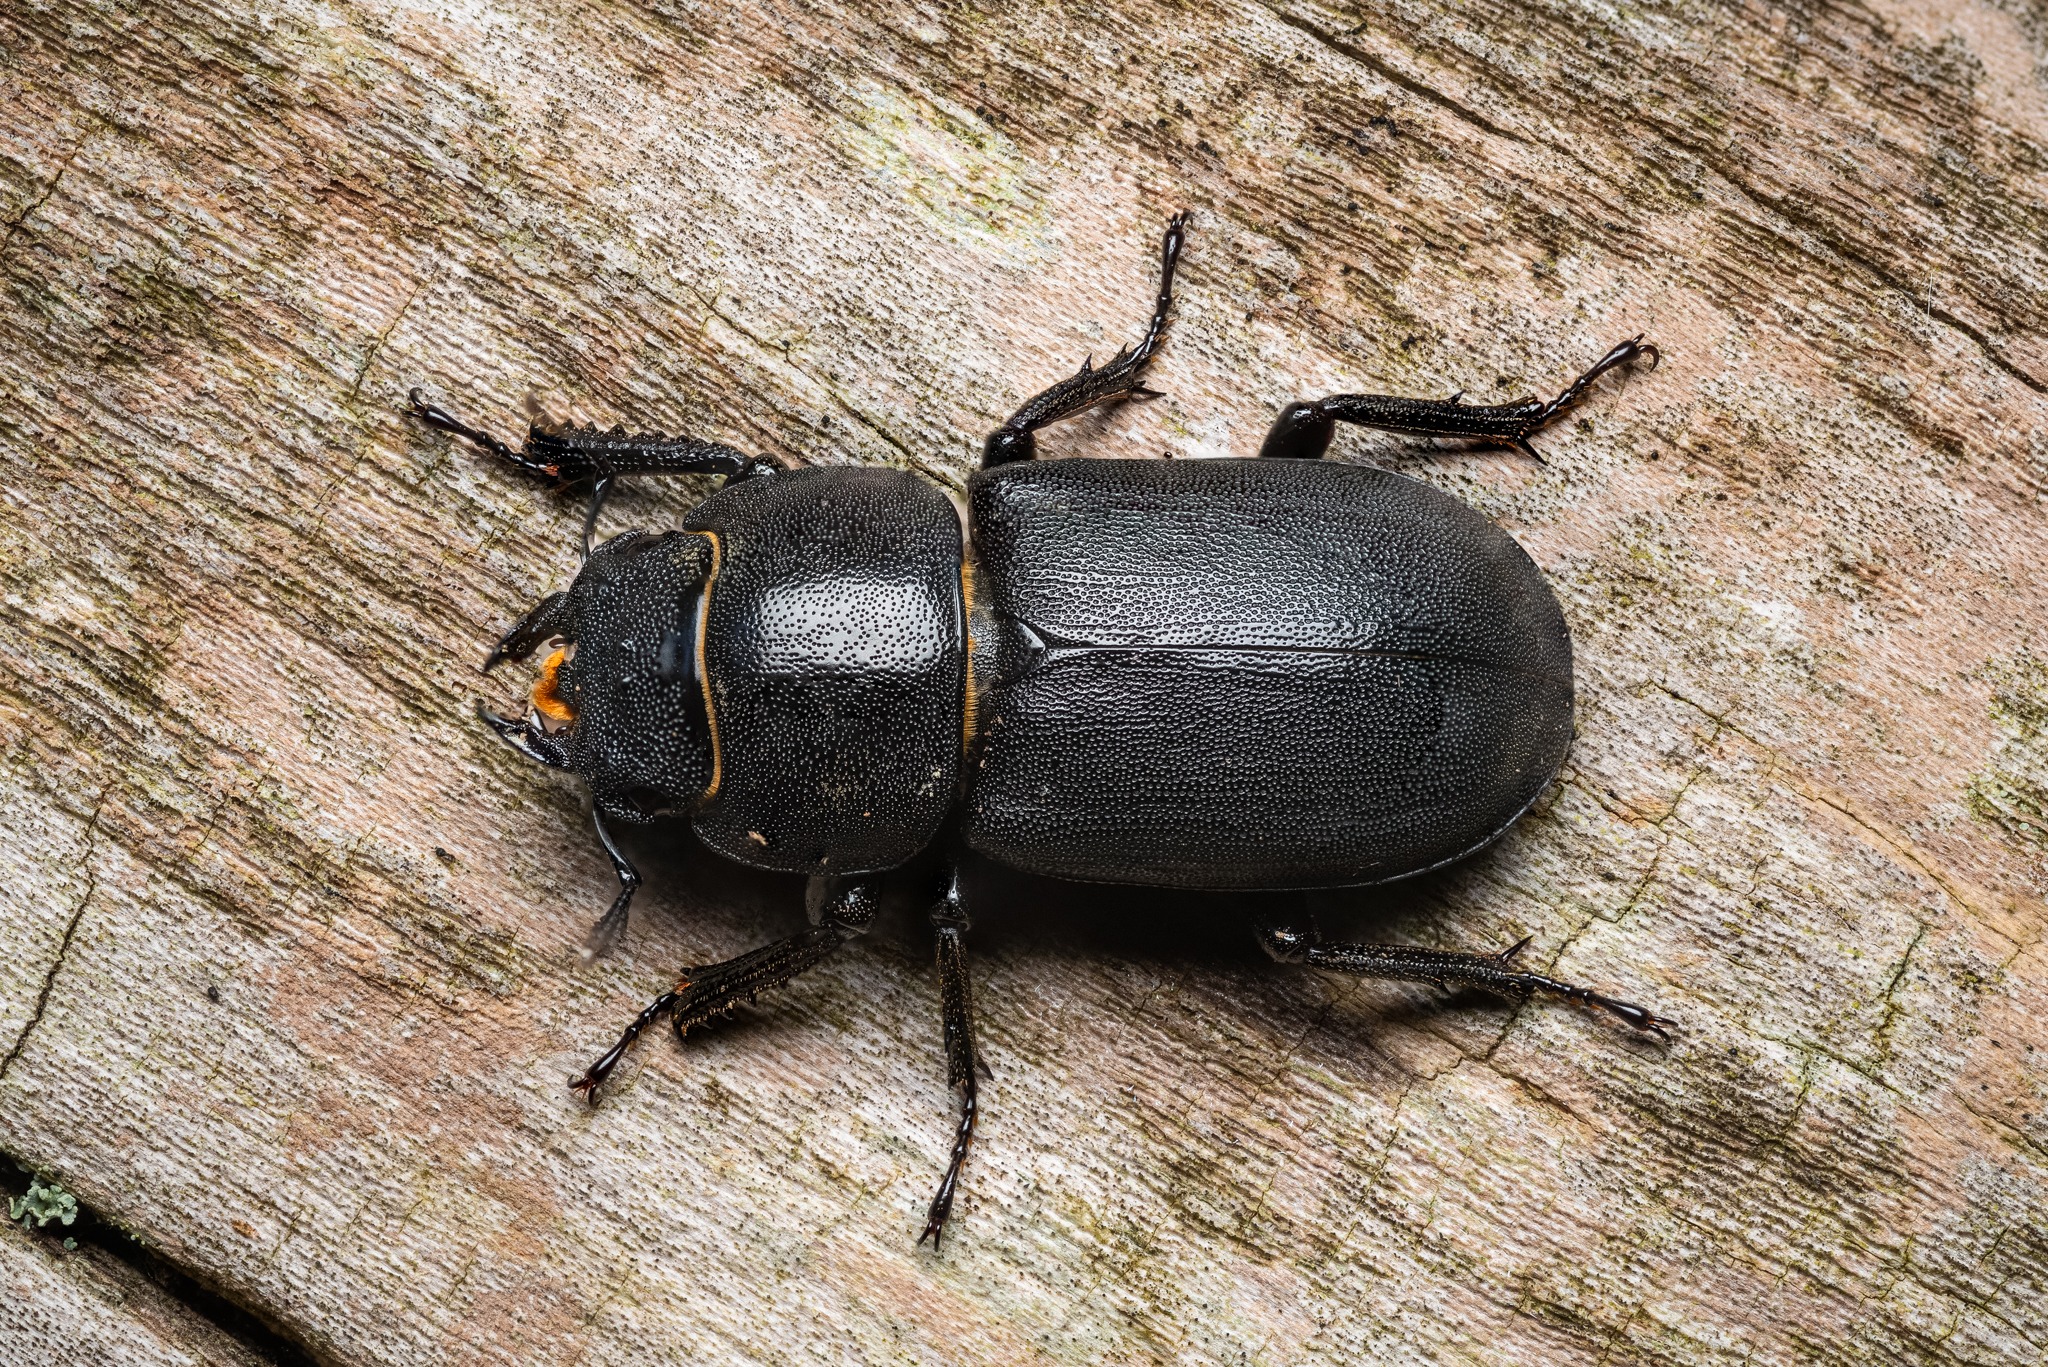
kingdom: Animalia
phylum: Arthropoda
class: Insecta
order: Coleoptera
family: Lucanidae
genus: Dorcus
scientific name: Dorcus parallelipipedus
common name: Bøghjort
